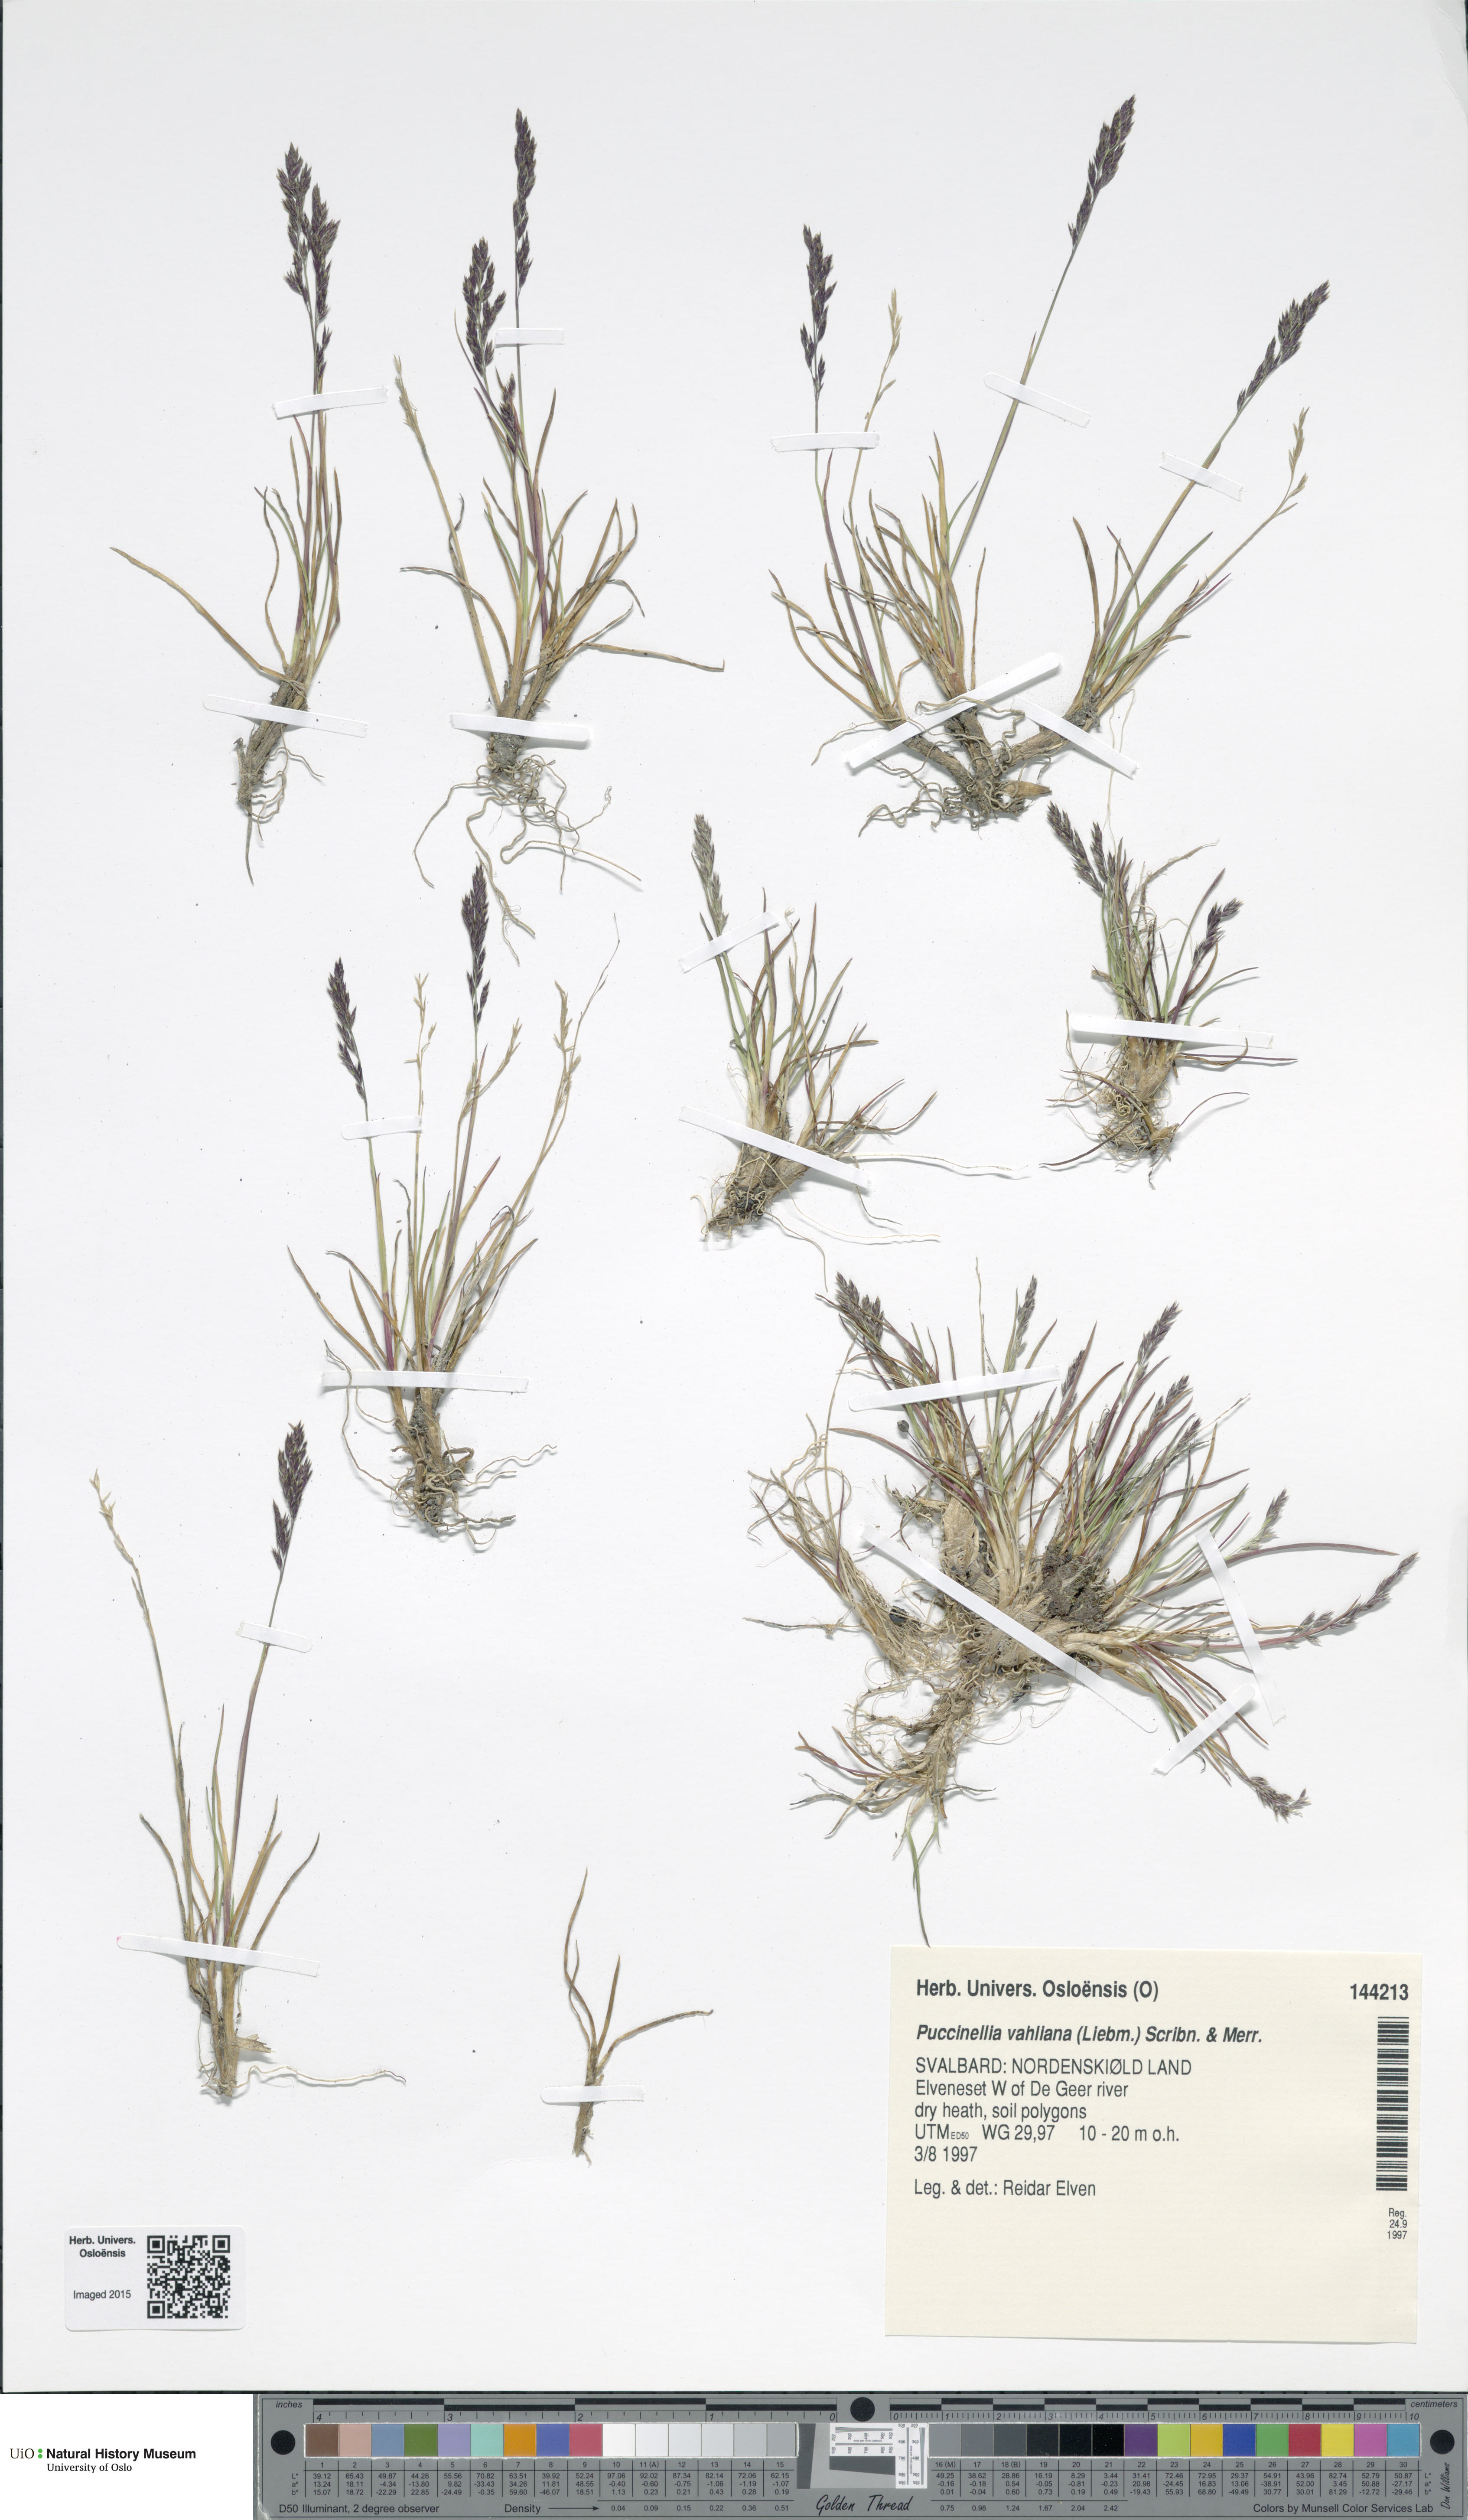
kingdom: Plantae
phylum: Tracheophyta
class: Liliopsida
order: Poales
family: Poaceae
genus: Puccinellia
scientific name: Puccinellia vahliana
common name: Vahl's alkaligrass
